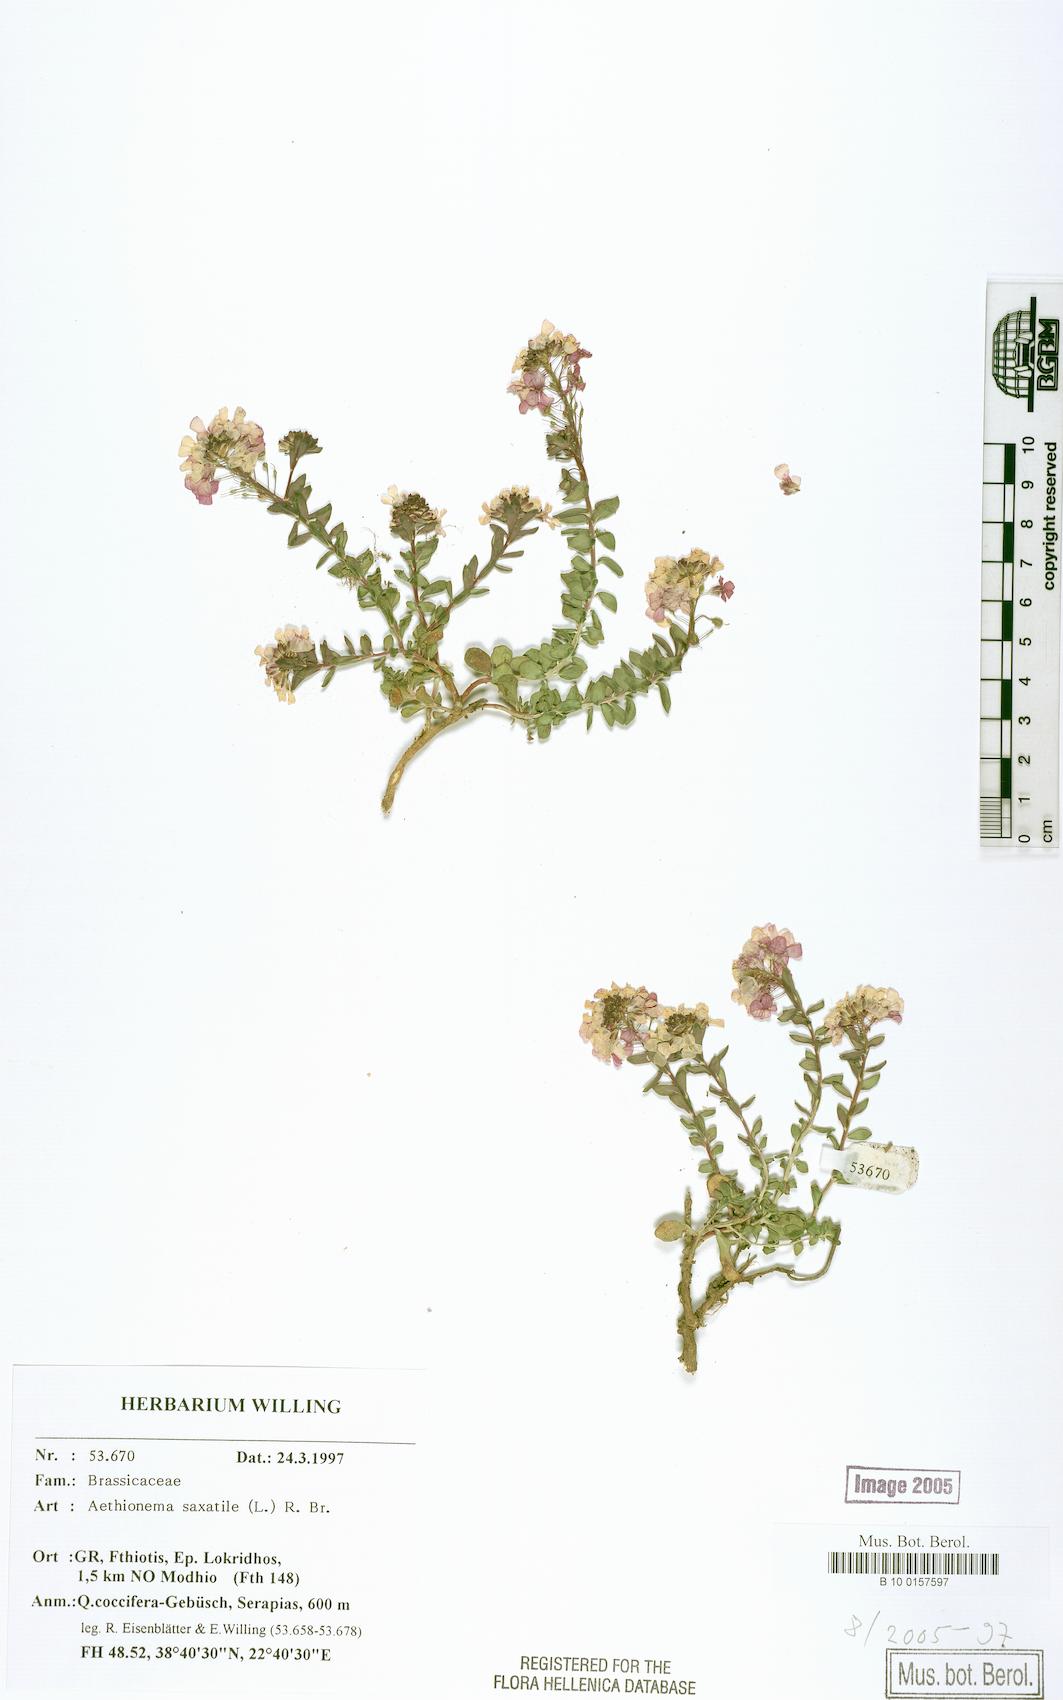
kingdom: Plantae
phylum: Tracheophyta
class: Magnoliopsida
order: Brassicales
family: Brassicaceae
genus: Aethionema
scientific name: Aethionema saxatile
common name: Burnt candytuft
